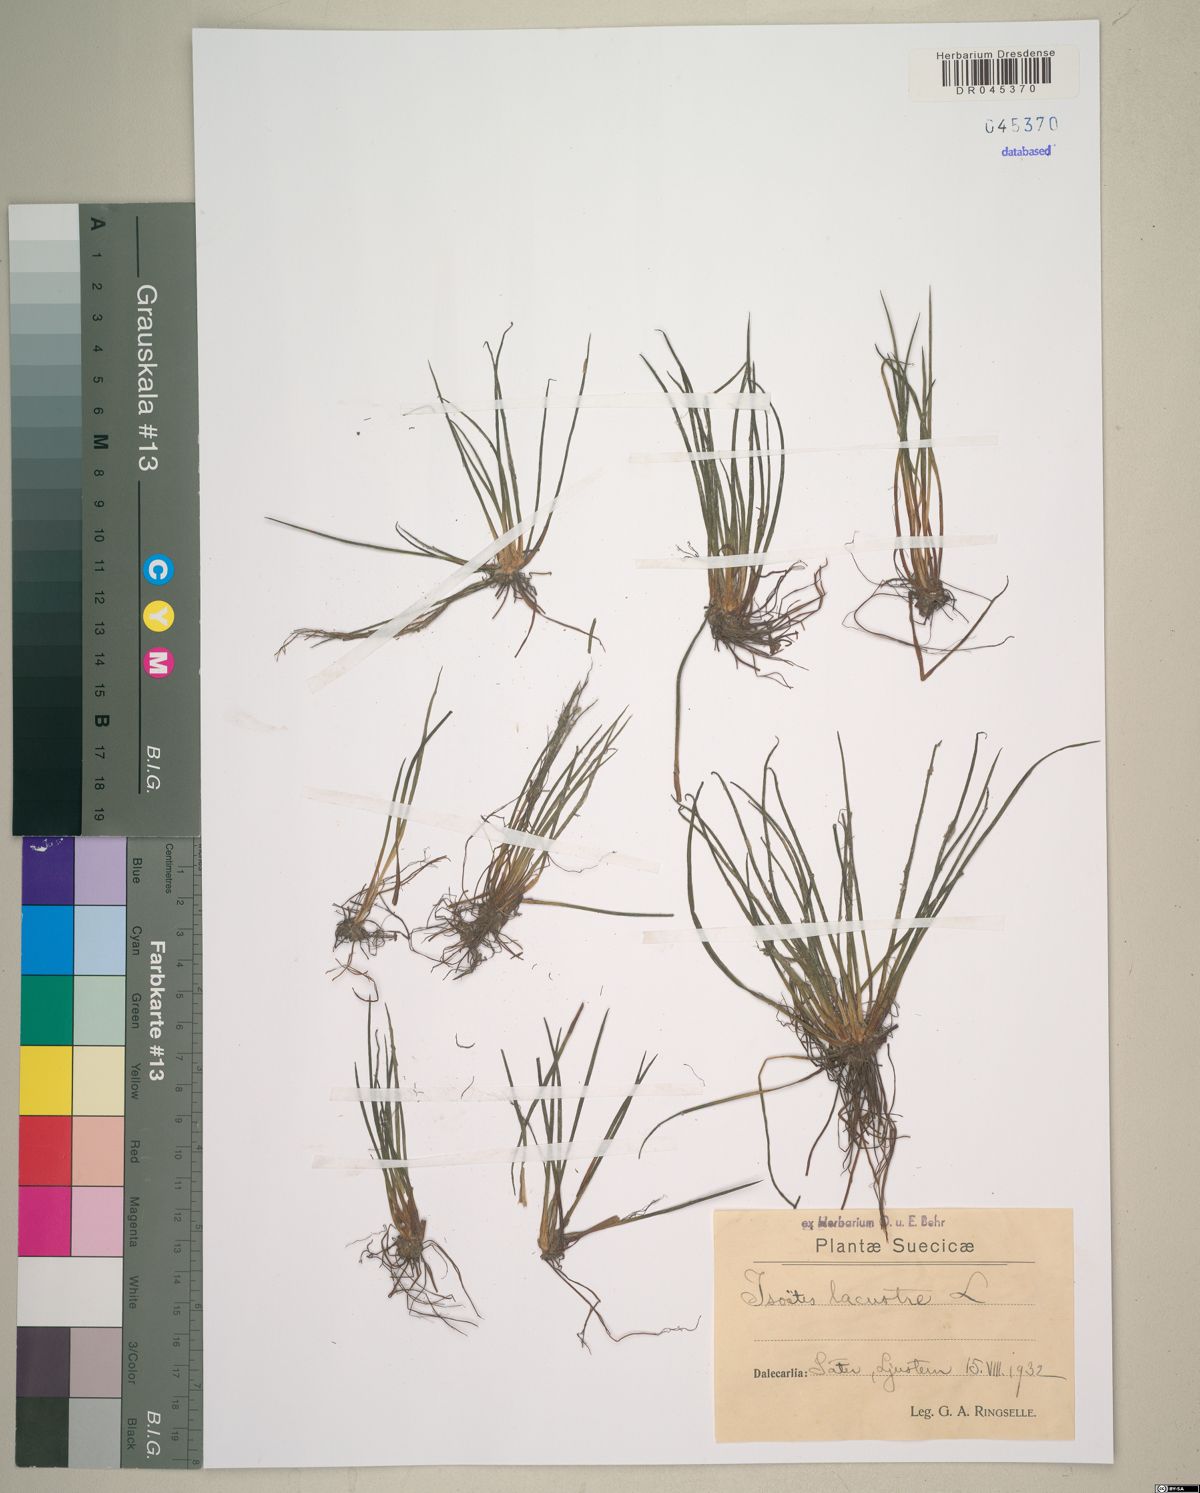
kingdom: Plantae
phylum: Tracheophyta
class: Lycopodiopsida
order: Isoetales
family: Isoetaceae
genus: Isoetes
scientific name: Isoetes lacustris
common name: Common quillwort
